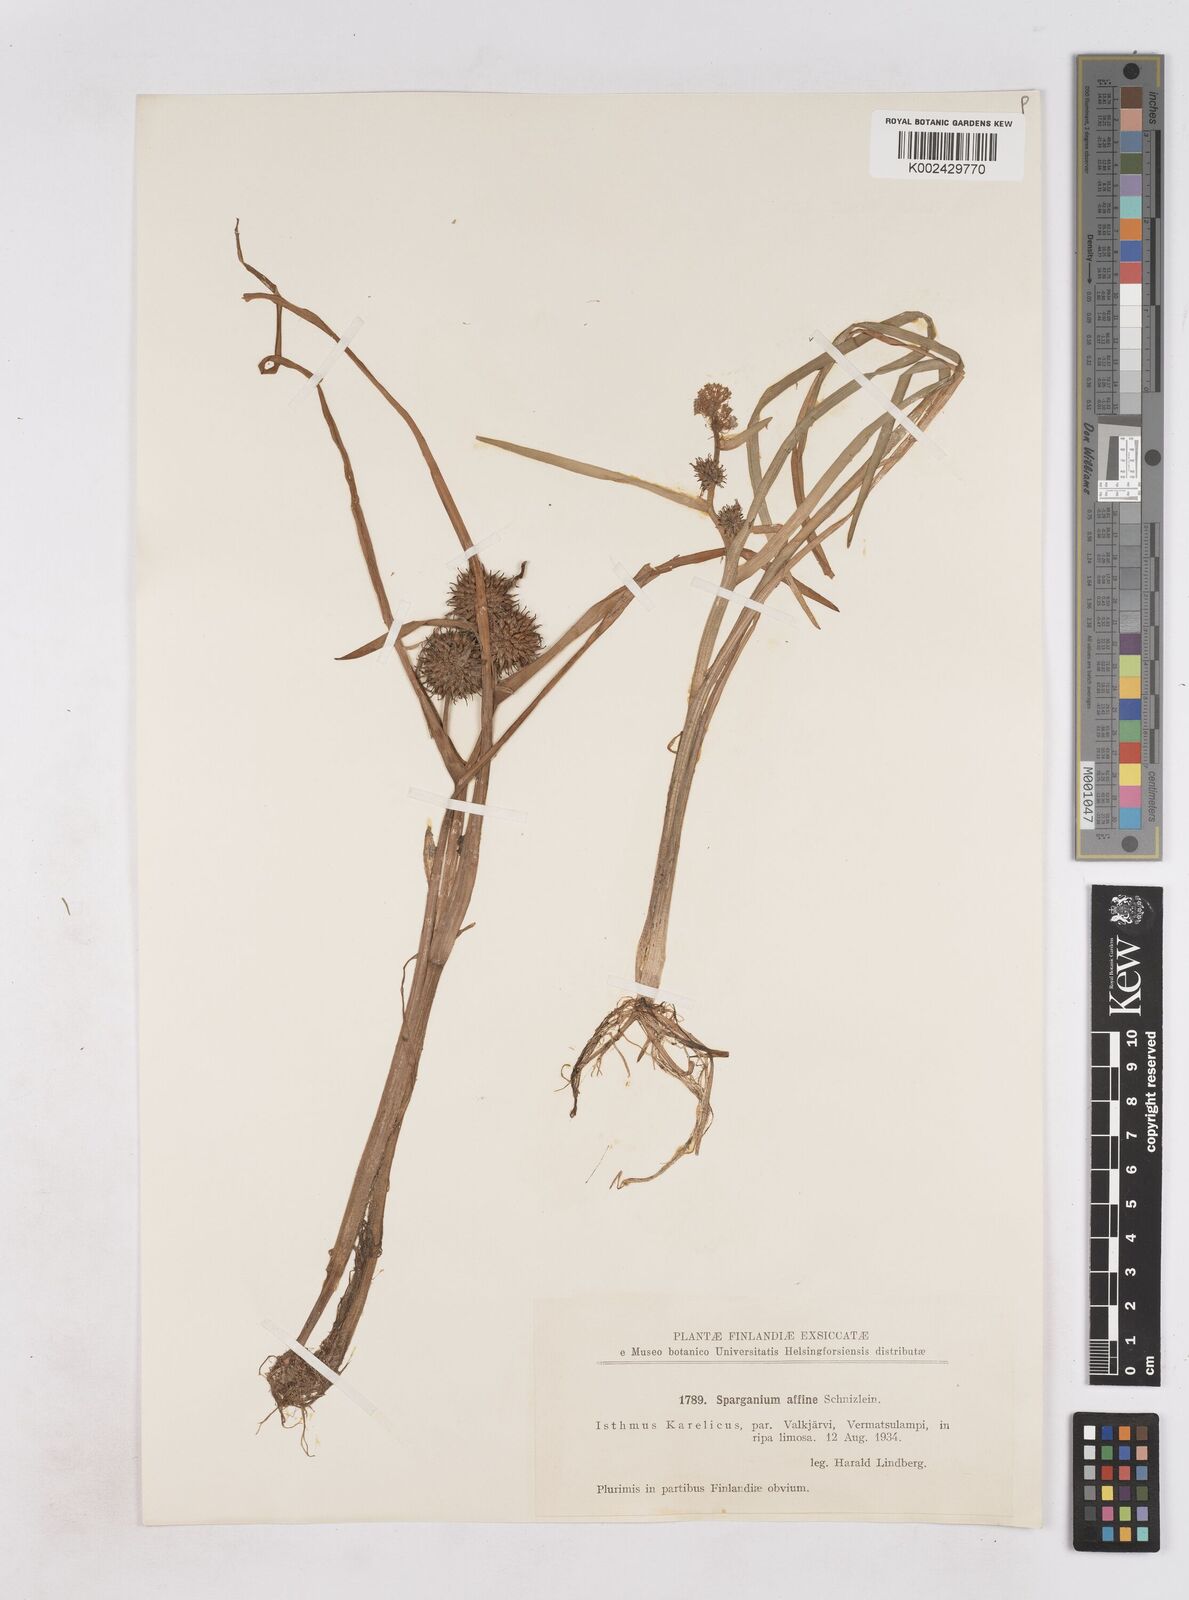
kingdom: Plantae
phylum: Tracheophyta
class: Liliopsida
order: Poales
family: Typhaceae
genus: Sparganium
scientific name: Sparganium angustifolium
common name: Floating bur-reed
